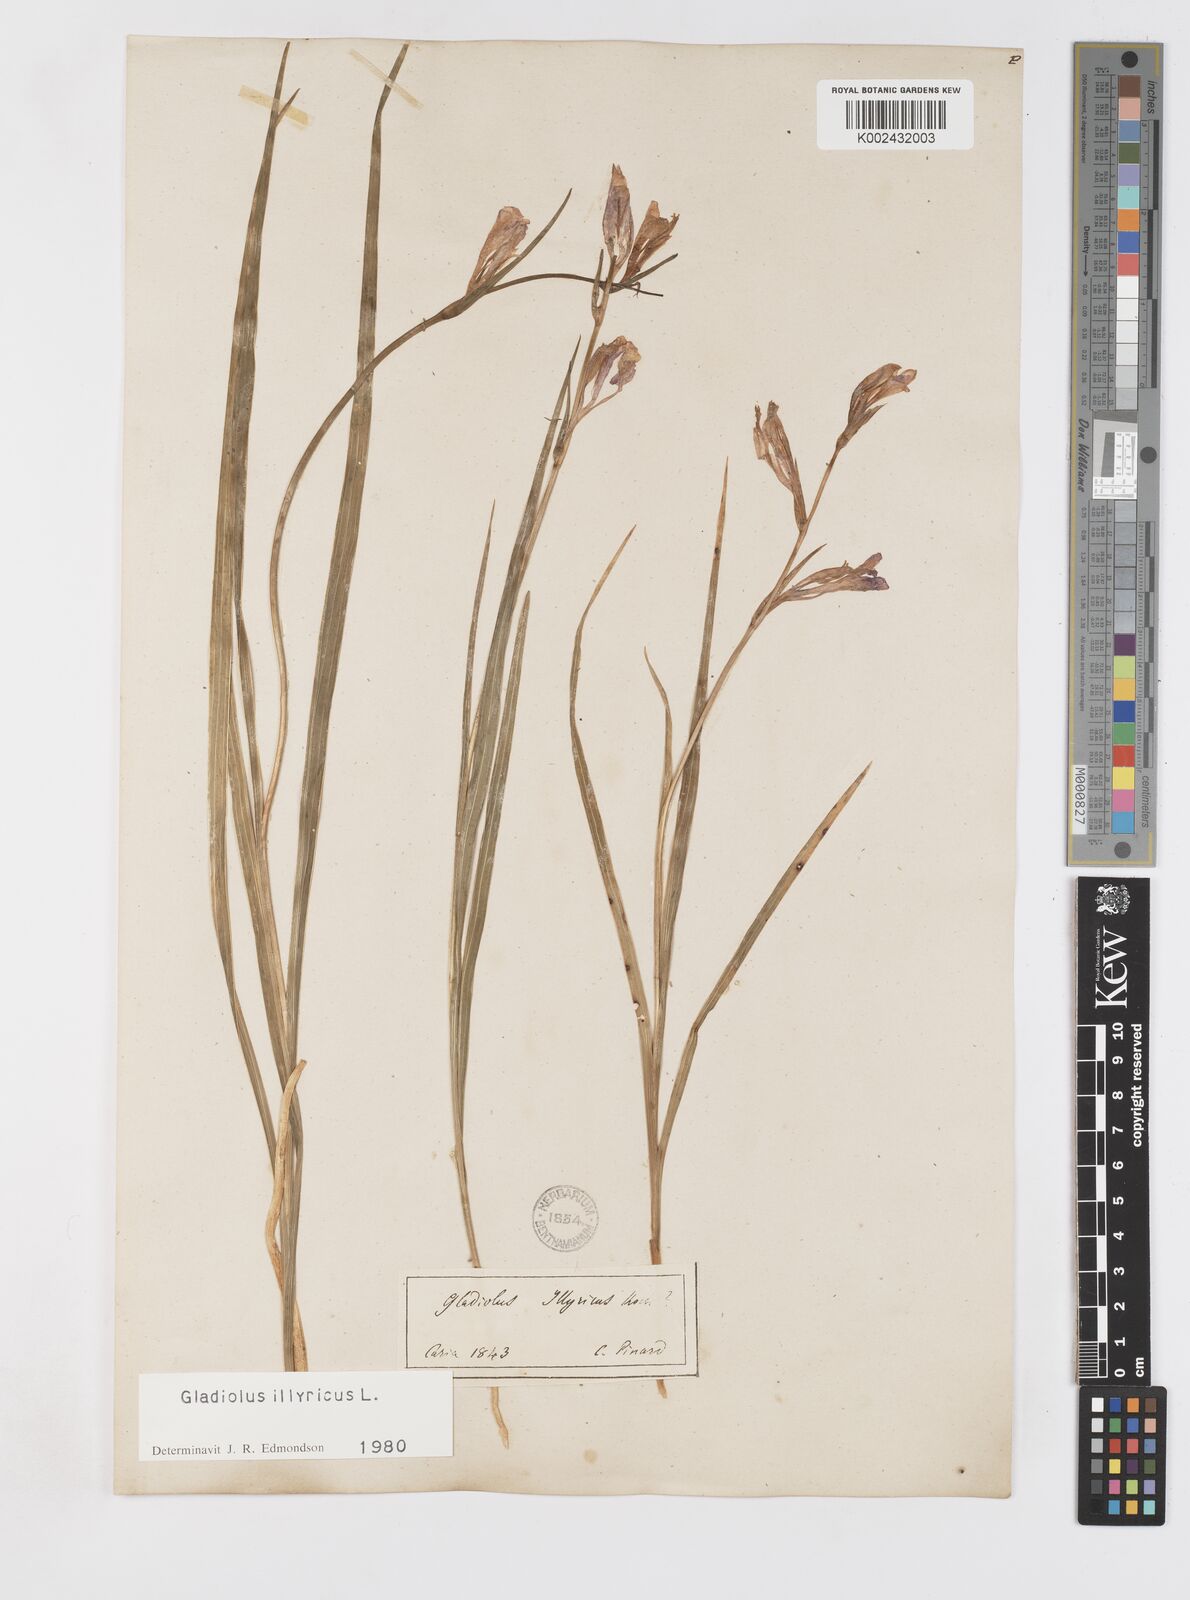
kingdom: Plantae
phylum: Tracheophyta
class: Liliopsida
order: Asparagales
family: Iridaceae
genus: Gladiolus
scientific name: Gladiolus illyricus
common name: Wild gladiolus
